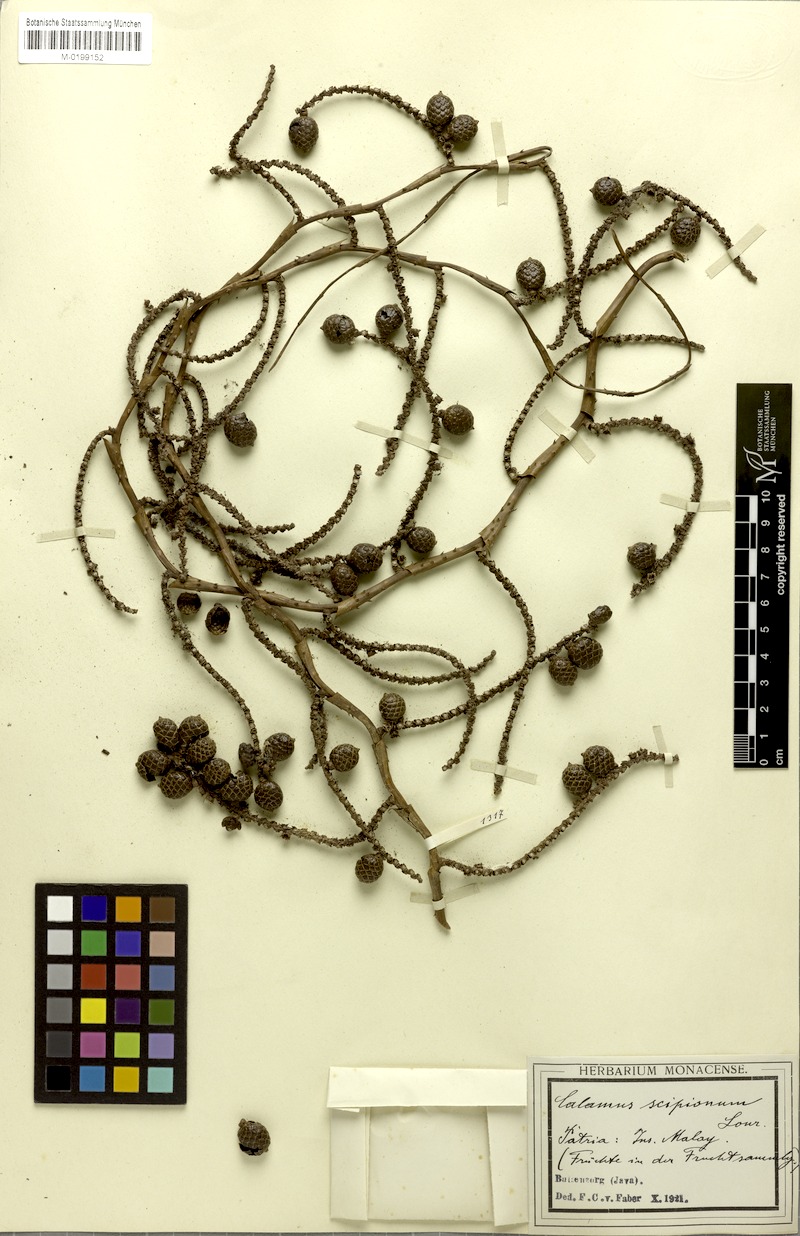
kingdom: Plantae
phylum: Tracheophyta
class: Liliopsida
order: Arecales
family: Arecaceae
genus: Calamus
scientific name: Calamus scipionum
